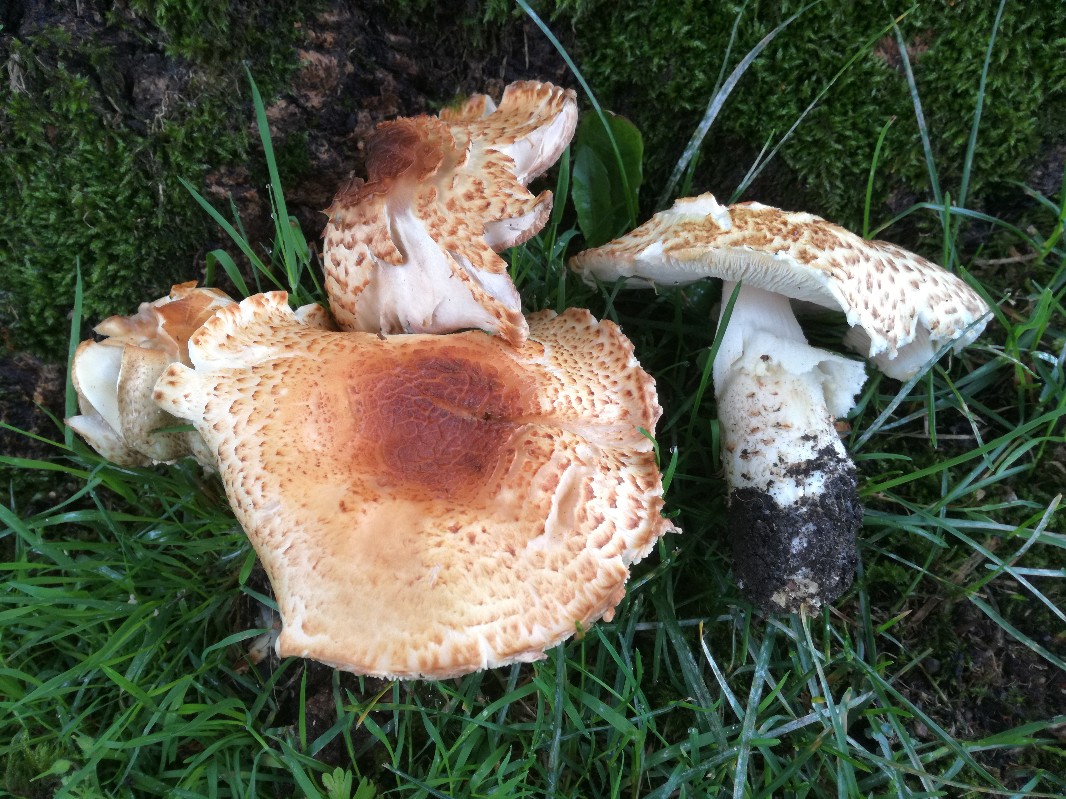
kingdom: Fungi
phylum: Basidiomycota
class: Agaricomycetes
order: Agaricales
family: Agaricaceae
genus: Agaricus
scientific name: Agaricus augustus
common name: prægtig champignon
